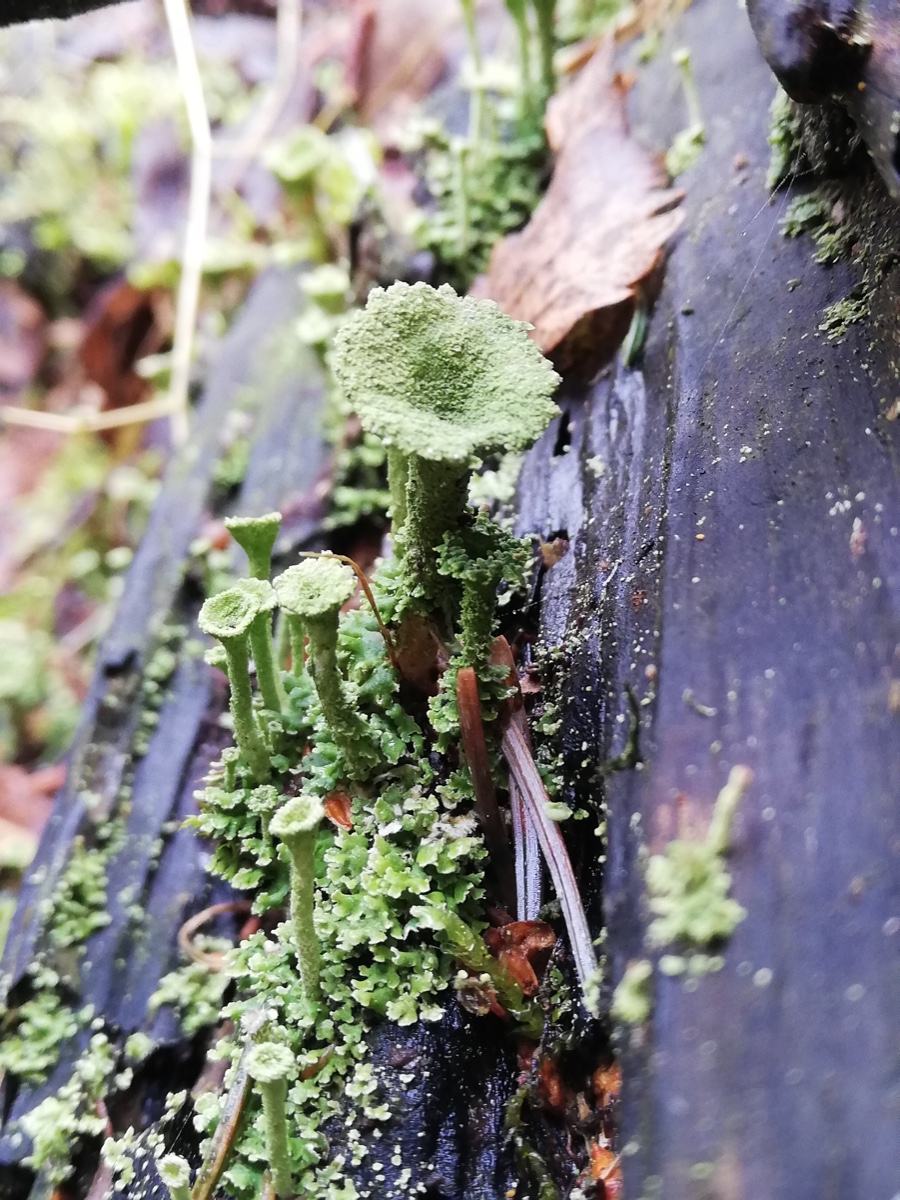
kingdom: Fungi
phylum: Ascomycota
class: Lecanoromycetes
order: Lecanorales
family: Cladoniaceae
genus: Cladonia
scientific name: Cladonia
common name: brungrøn bægerlav
